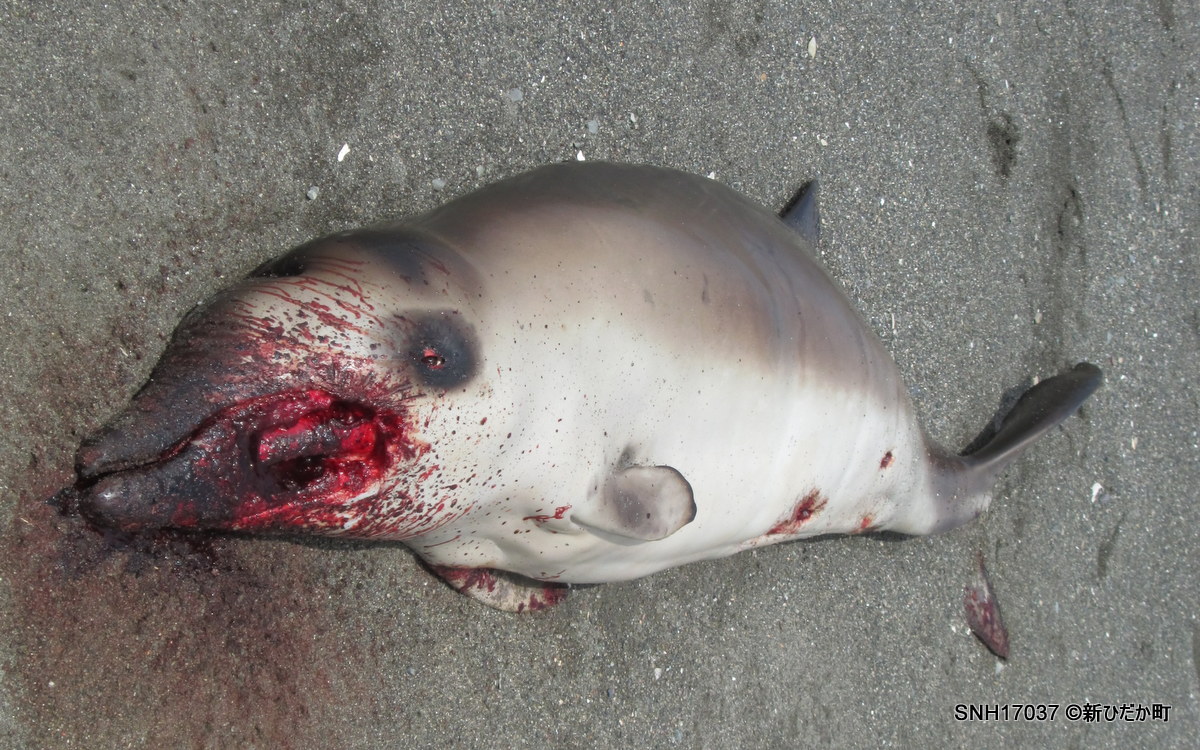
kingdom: Animalia
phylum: Chordata
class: Mammalia
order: Cetacea
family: Hyperoodontidae
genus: Mesoplodon
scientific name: Mesoplodon carlhubbsi
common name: Hubbs' beaked whale
